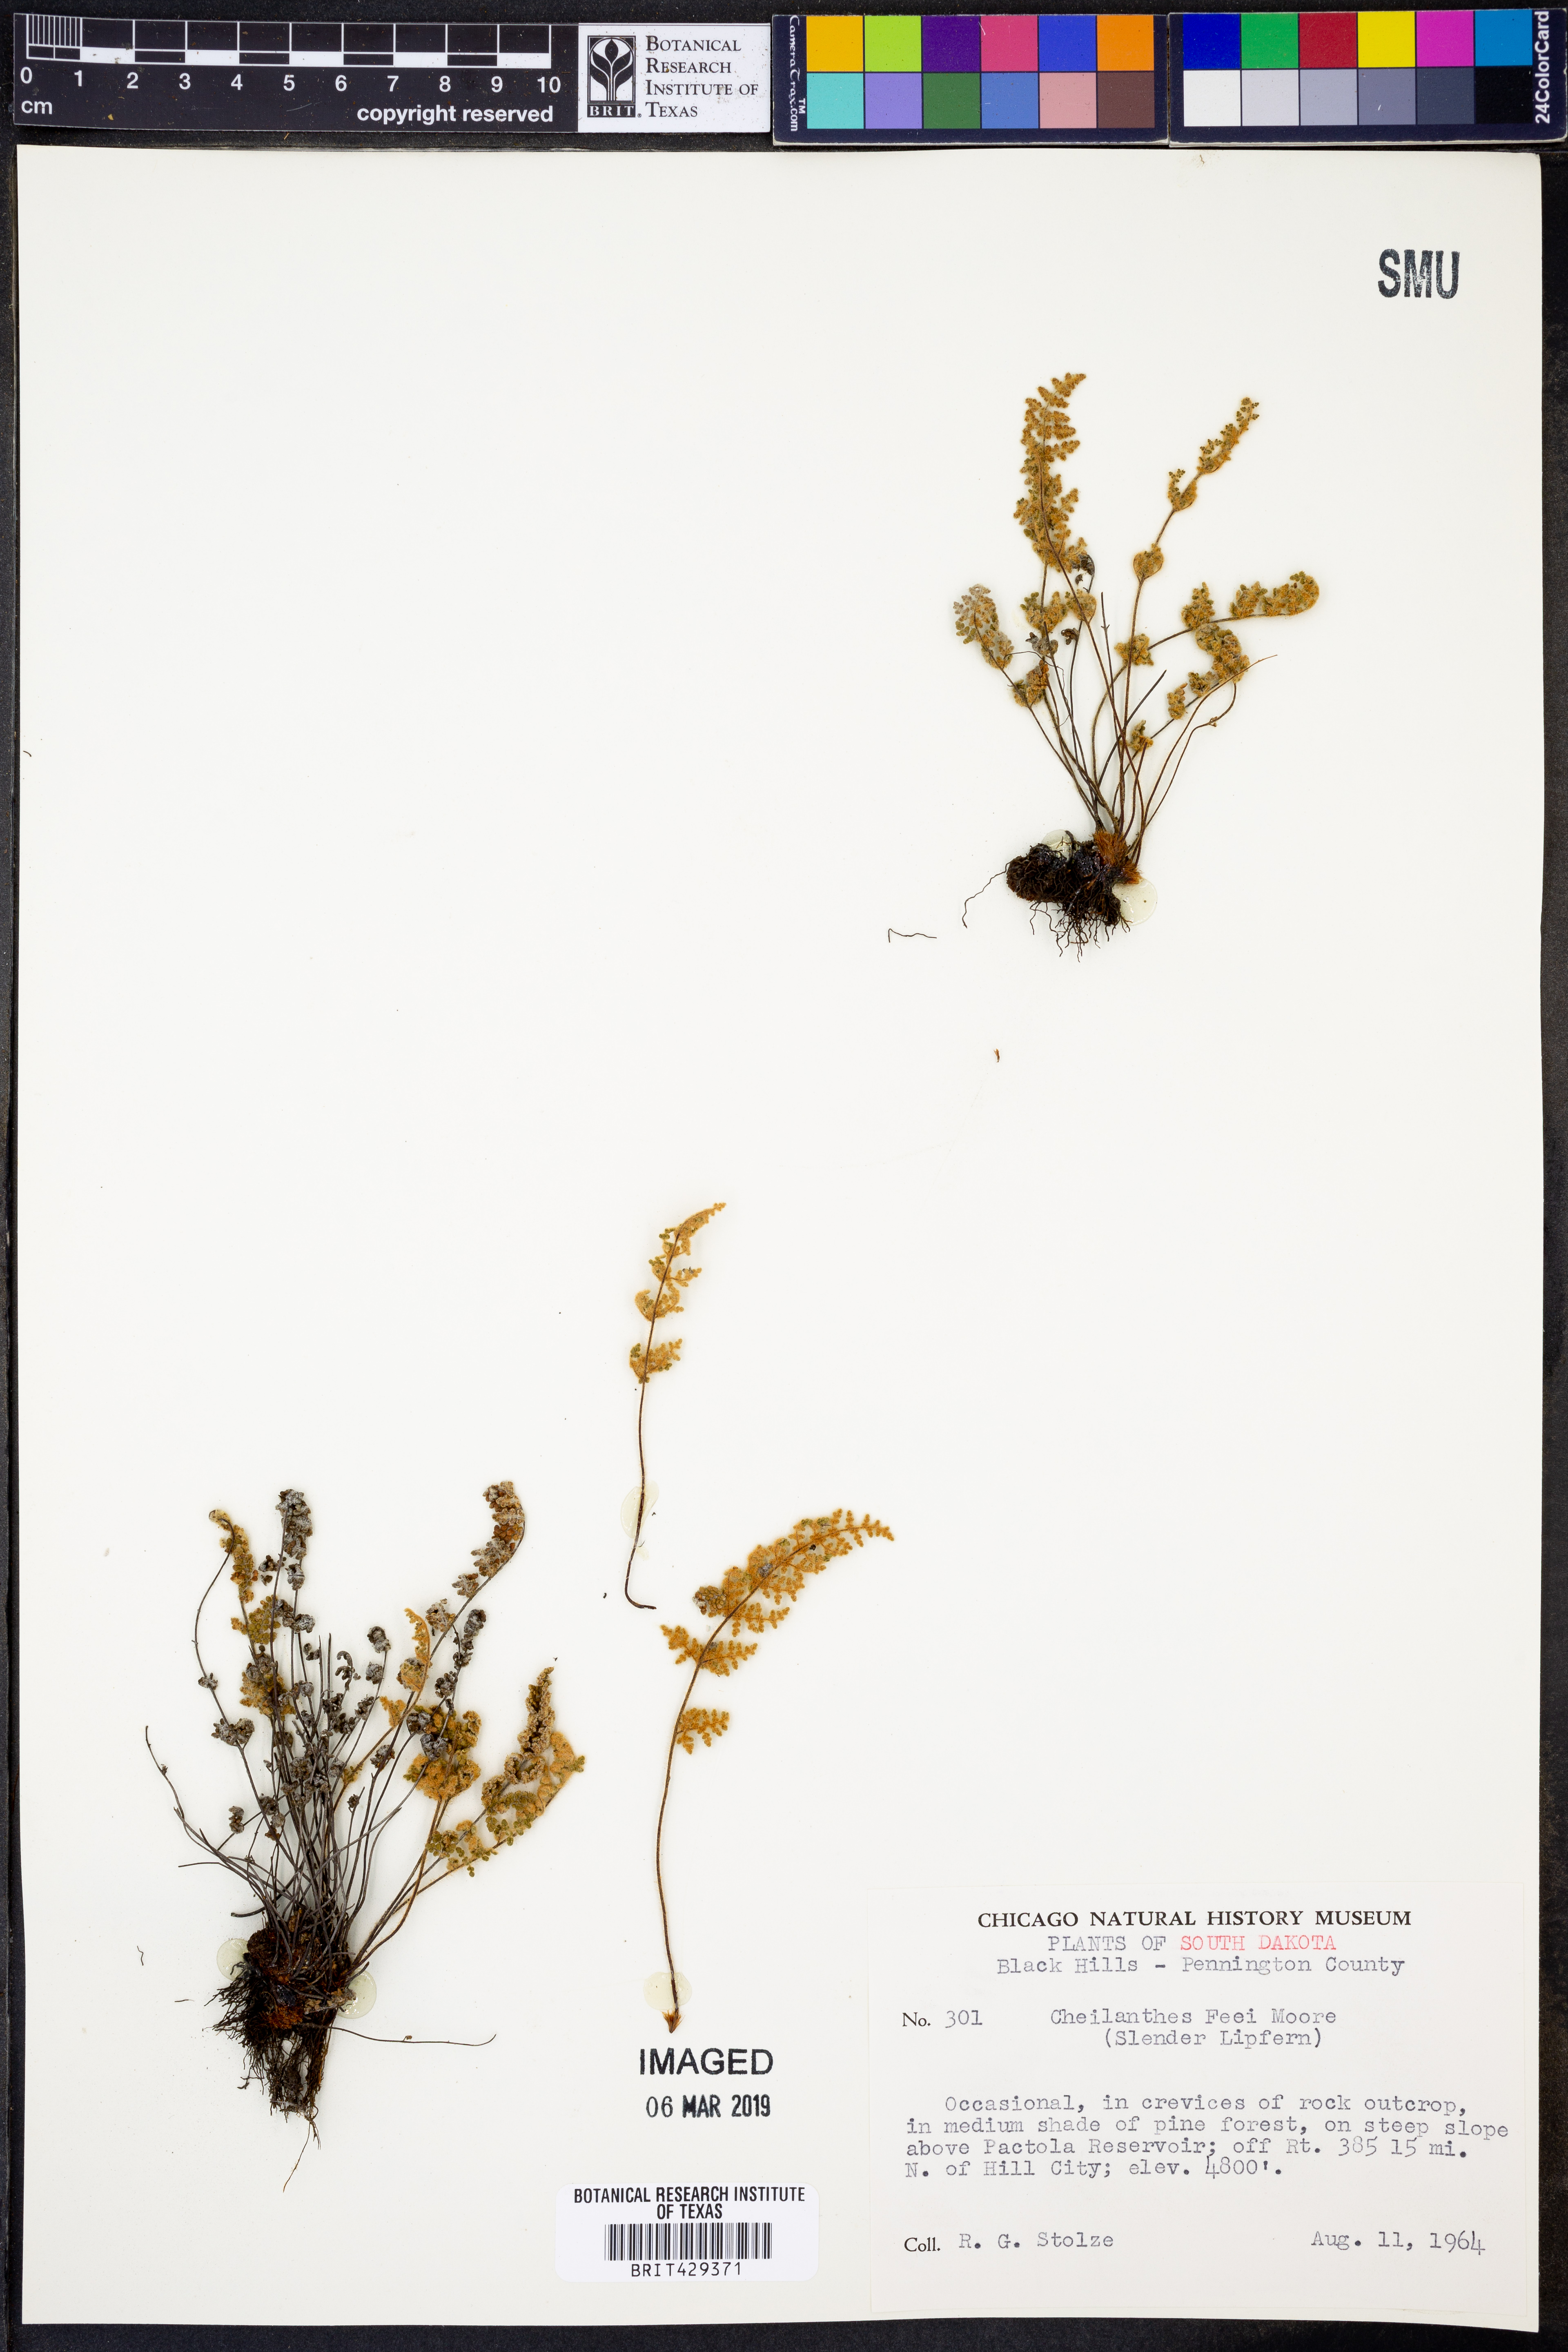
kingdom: Plantae
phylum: Tracheophyta
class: Polypodiopsida
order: Polypodiales
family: Pteridaceae
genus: Myriopteris
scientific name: Myriopteris gracilis
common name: Fee's lip fern
